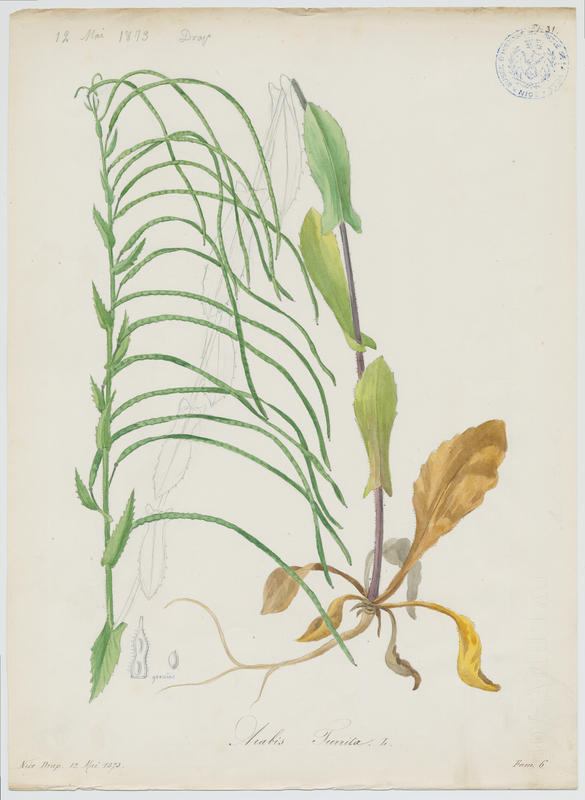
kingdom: Plantae
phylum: Tracheophyta
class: Magnoliopsida
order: Brassicales
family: Brassicaceae
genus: Pseudoturritis
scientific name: Pseudoturritis turrita
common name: Tower cress
